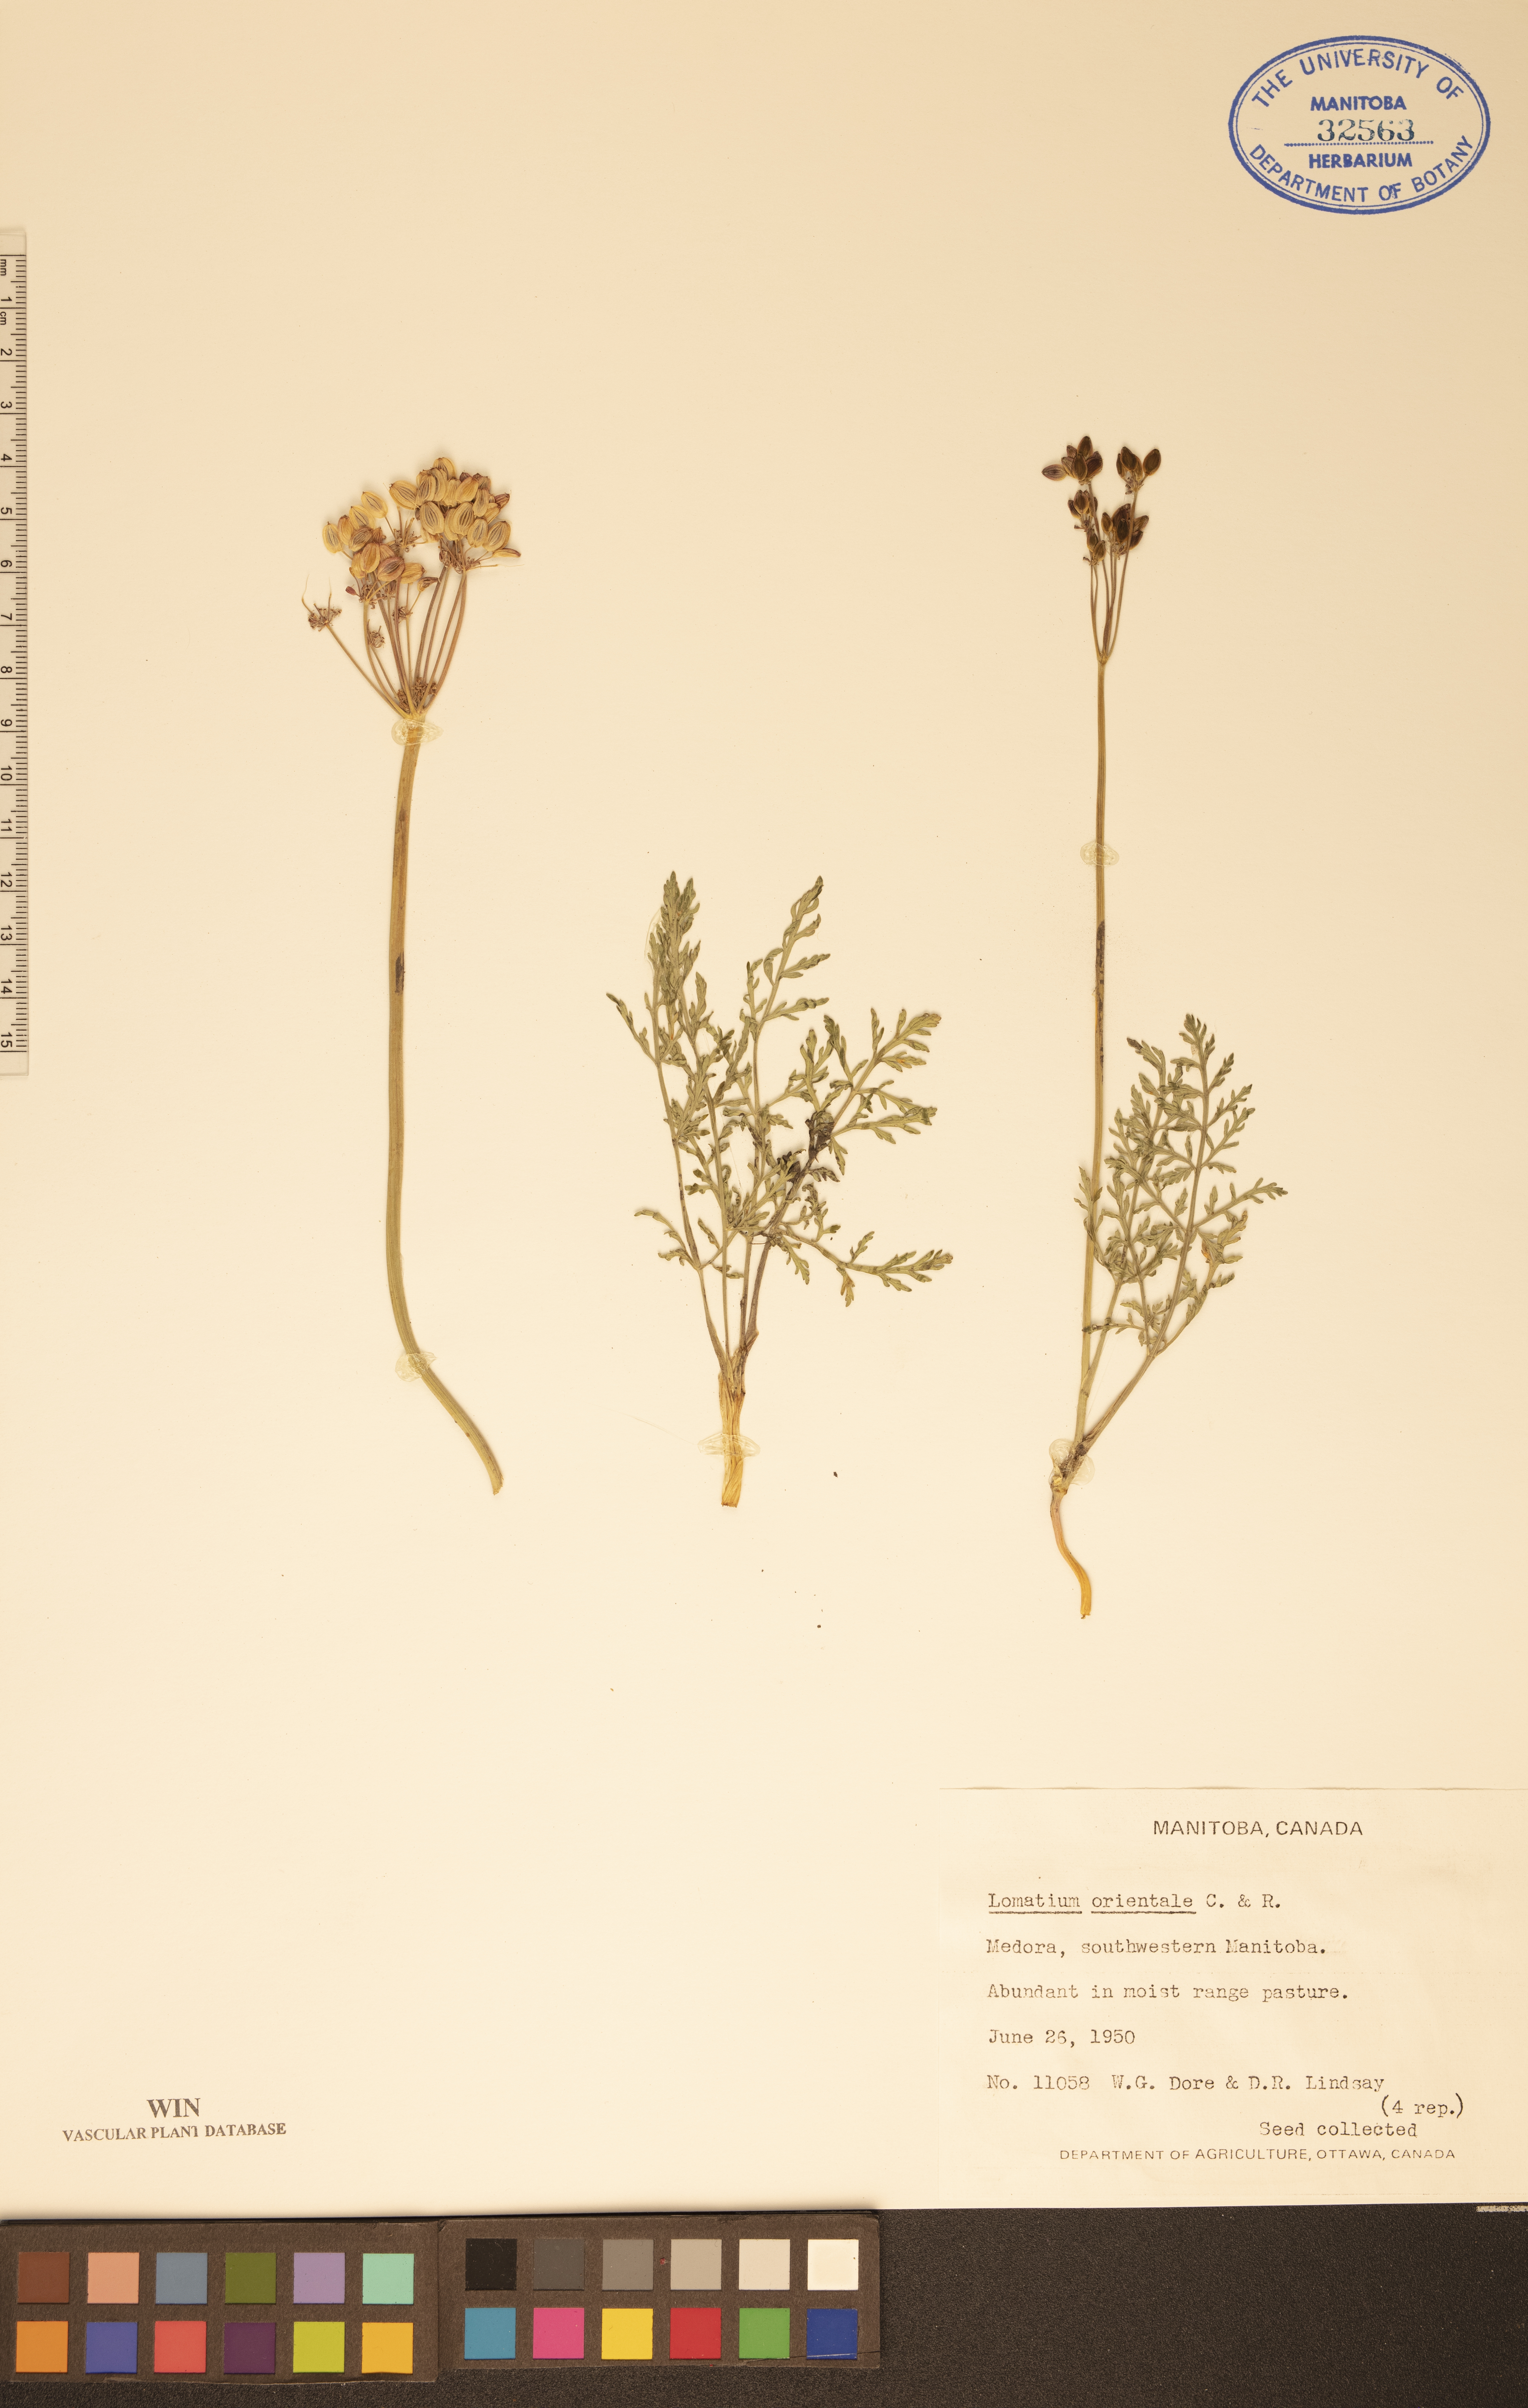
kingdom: Plantae
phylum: Tracheophyta
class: Magnoliopsida
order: Apiales
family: Apiaceae
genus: Lomatium
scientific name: Lomatium orientale
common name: Eastern cous
